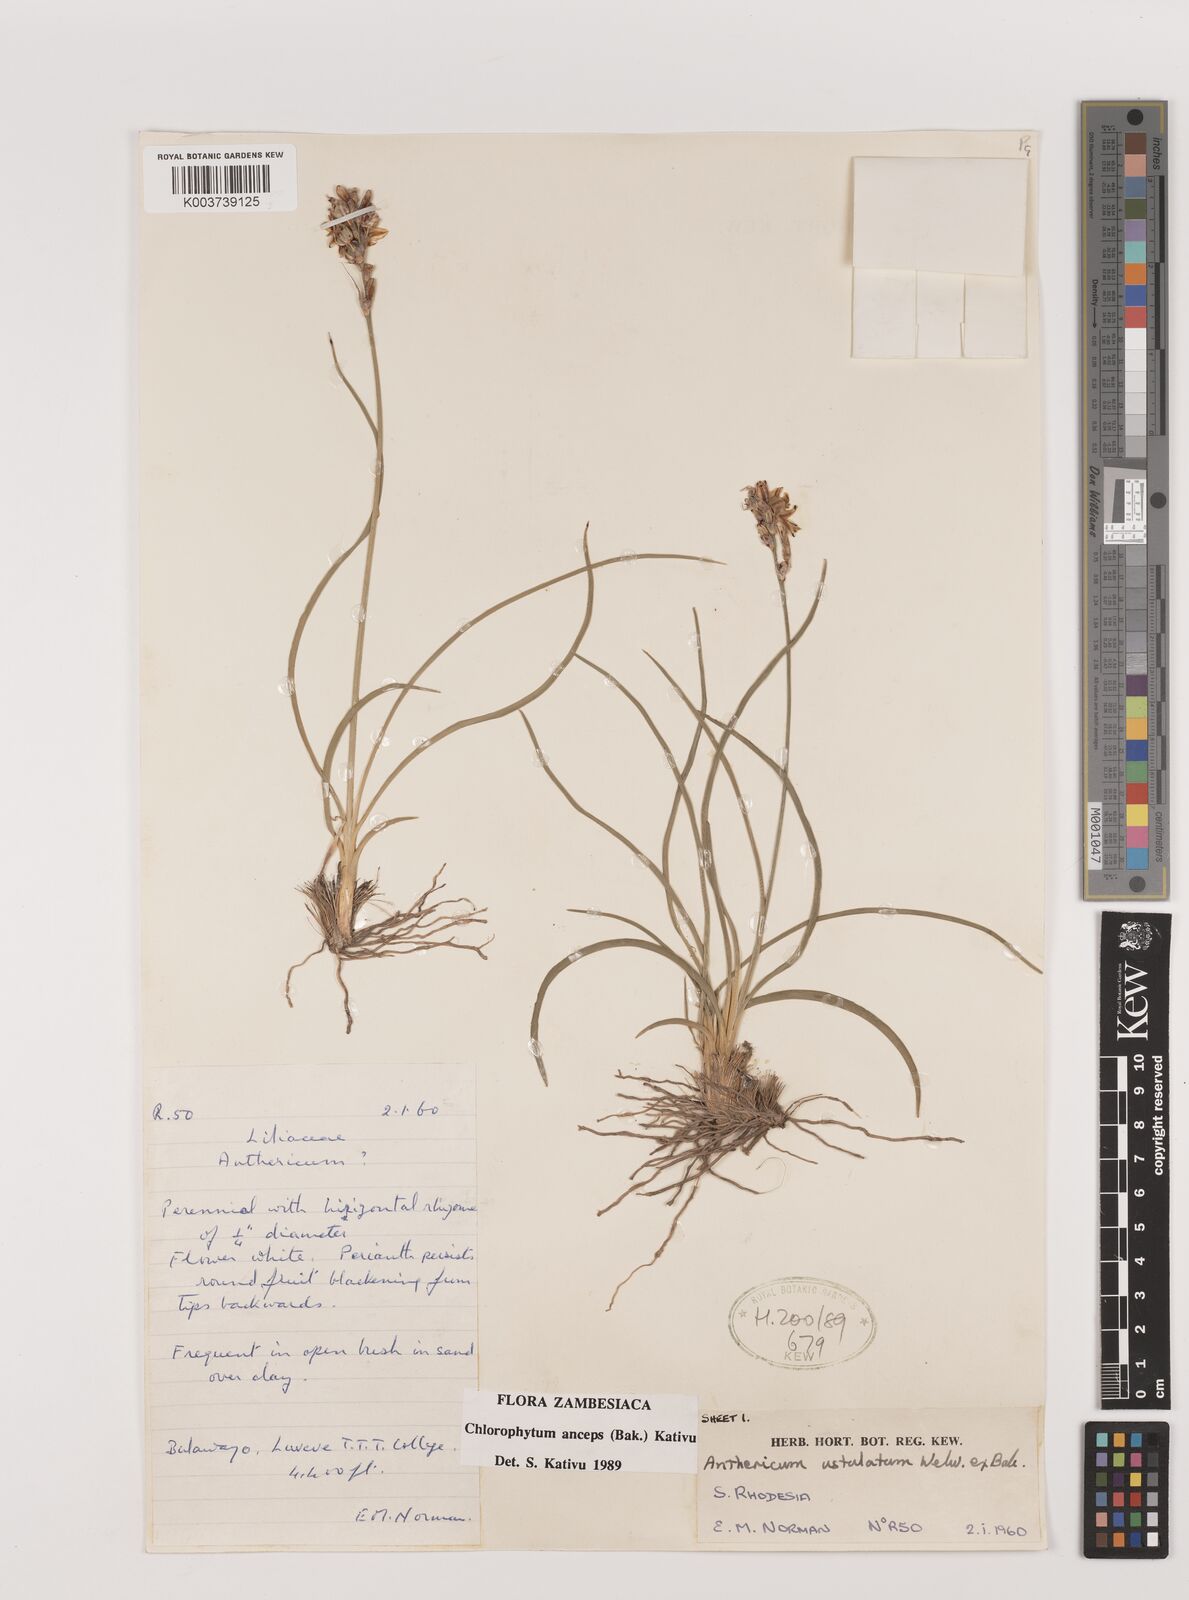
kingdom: Plantae
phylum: Tracheophyta
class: Liliopsida
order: Asparagales
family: Asparagaceae
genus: Chlorophytum
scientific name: Chlorophytum anceps
